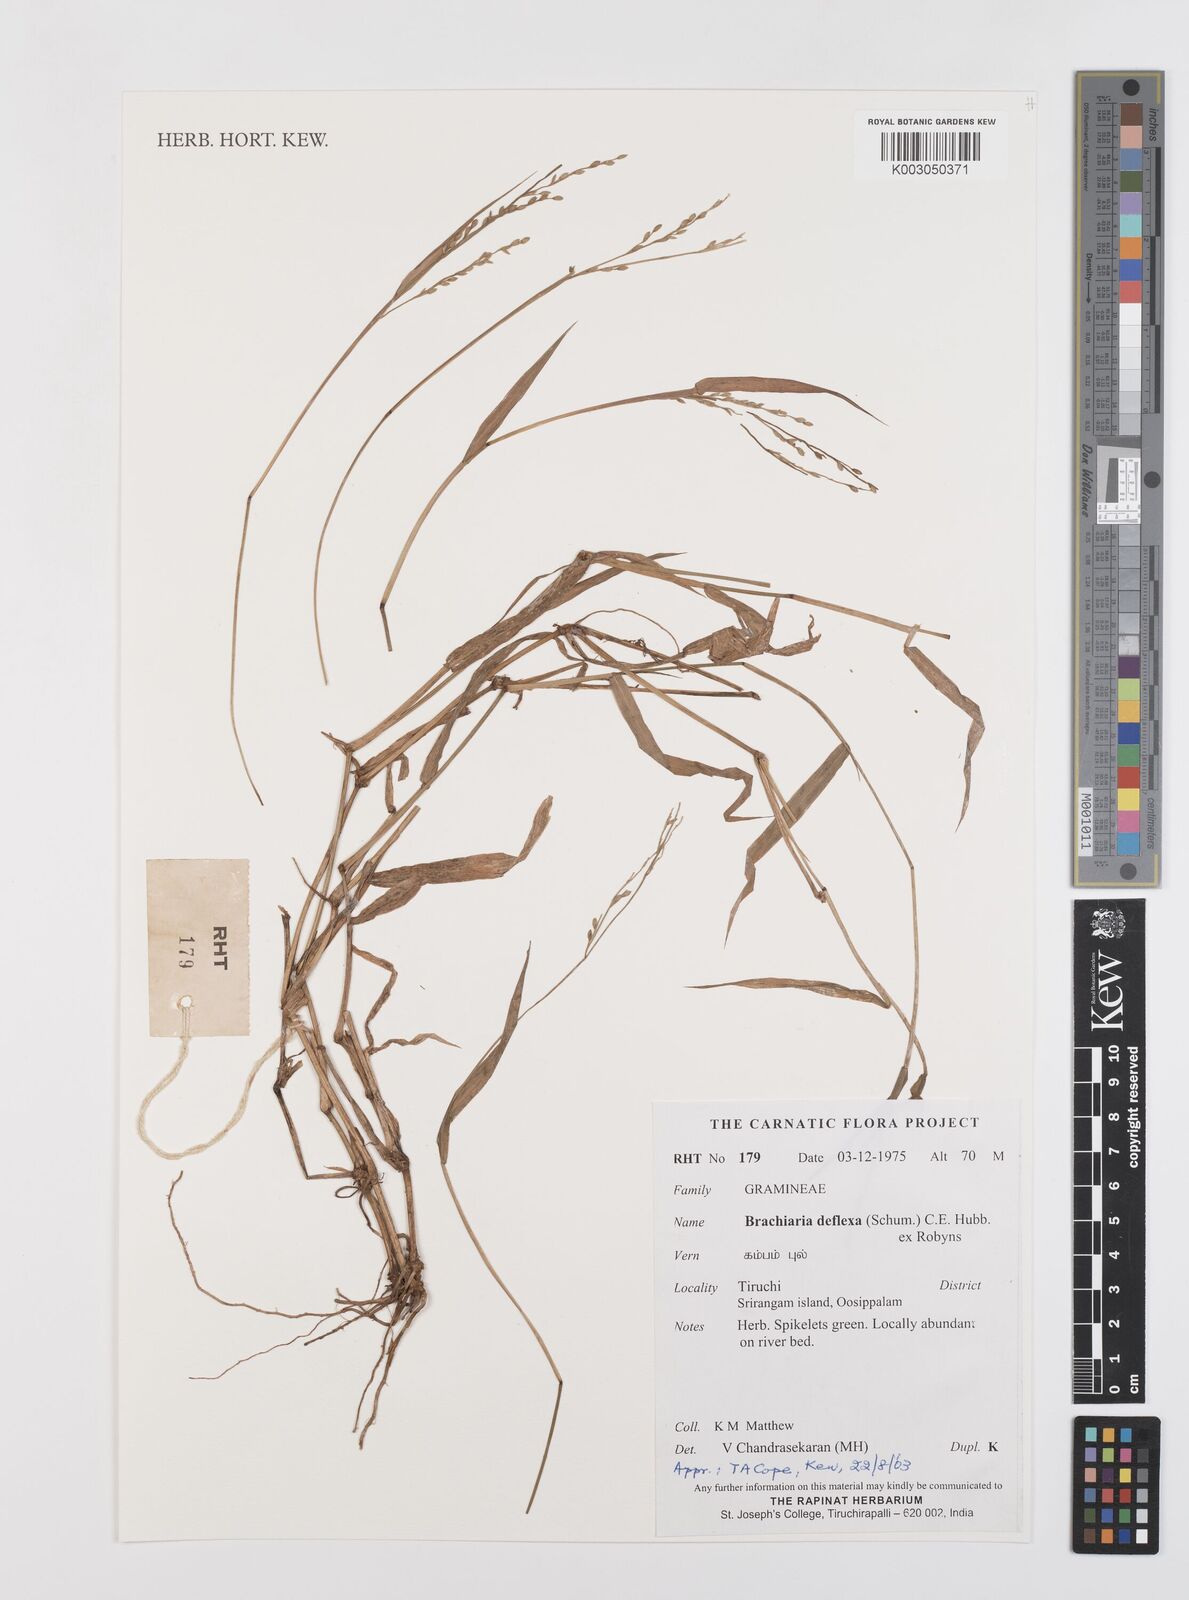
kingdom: Plantae
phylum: Tracheophyta
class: Liliopsida
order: Poales
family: Poaceae
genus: Urochloa
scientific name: Urochloa deflexa
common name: Guinea millet
